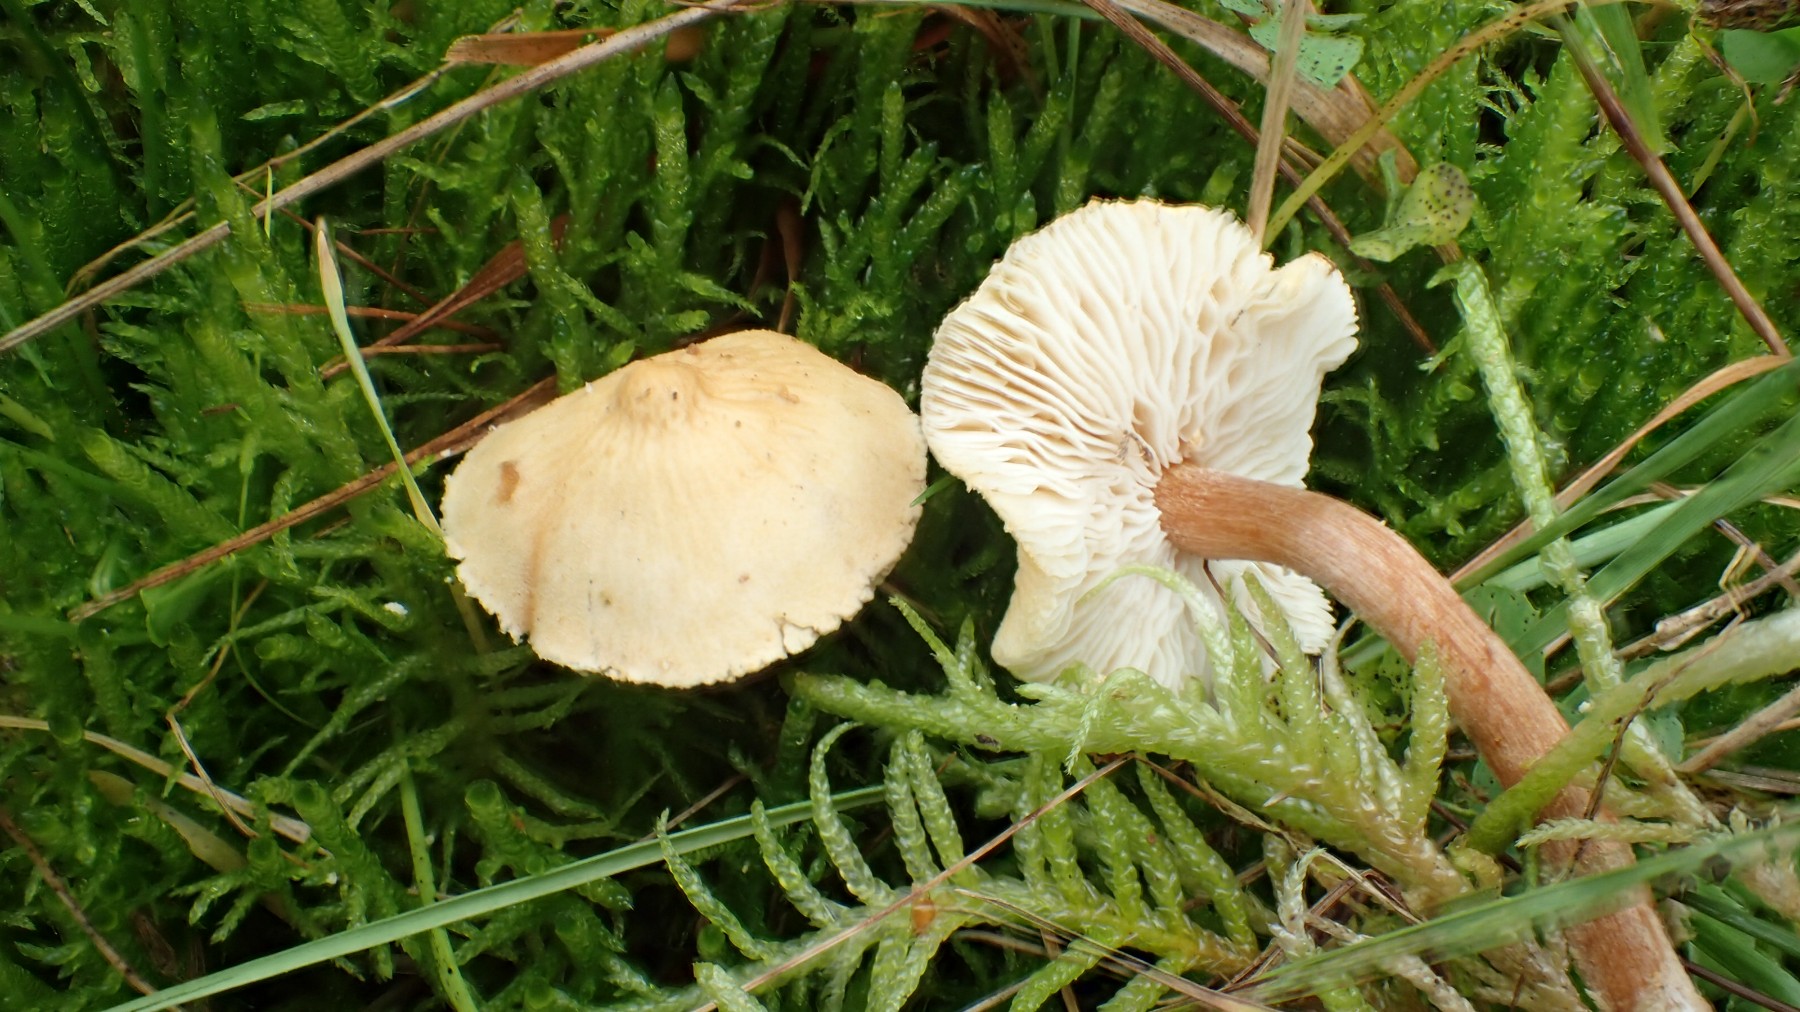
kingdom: Fungi
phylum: Basidiomycota
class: Agaricomycetes
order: Agaricales
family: Tricholomataceae
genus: Cystoderma
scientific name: Cystoderma amianthinum
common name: okkergul grynhat
